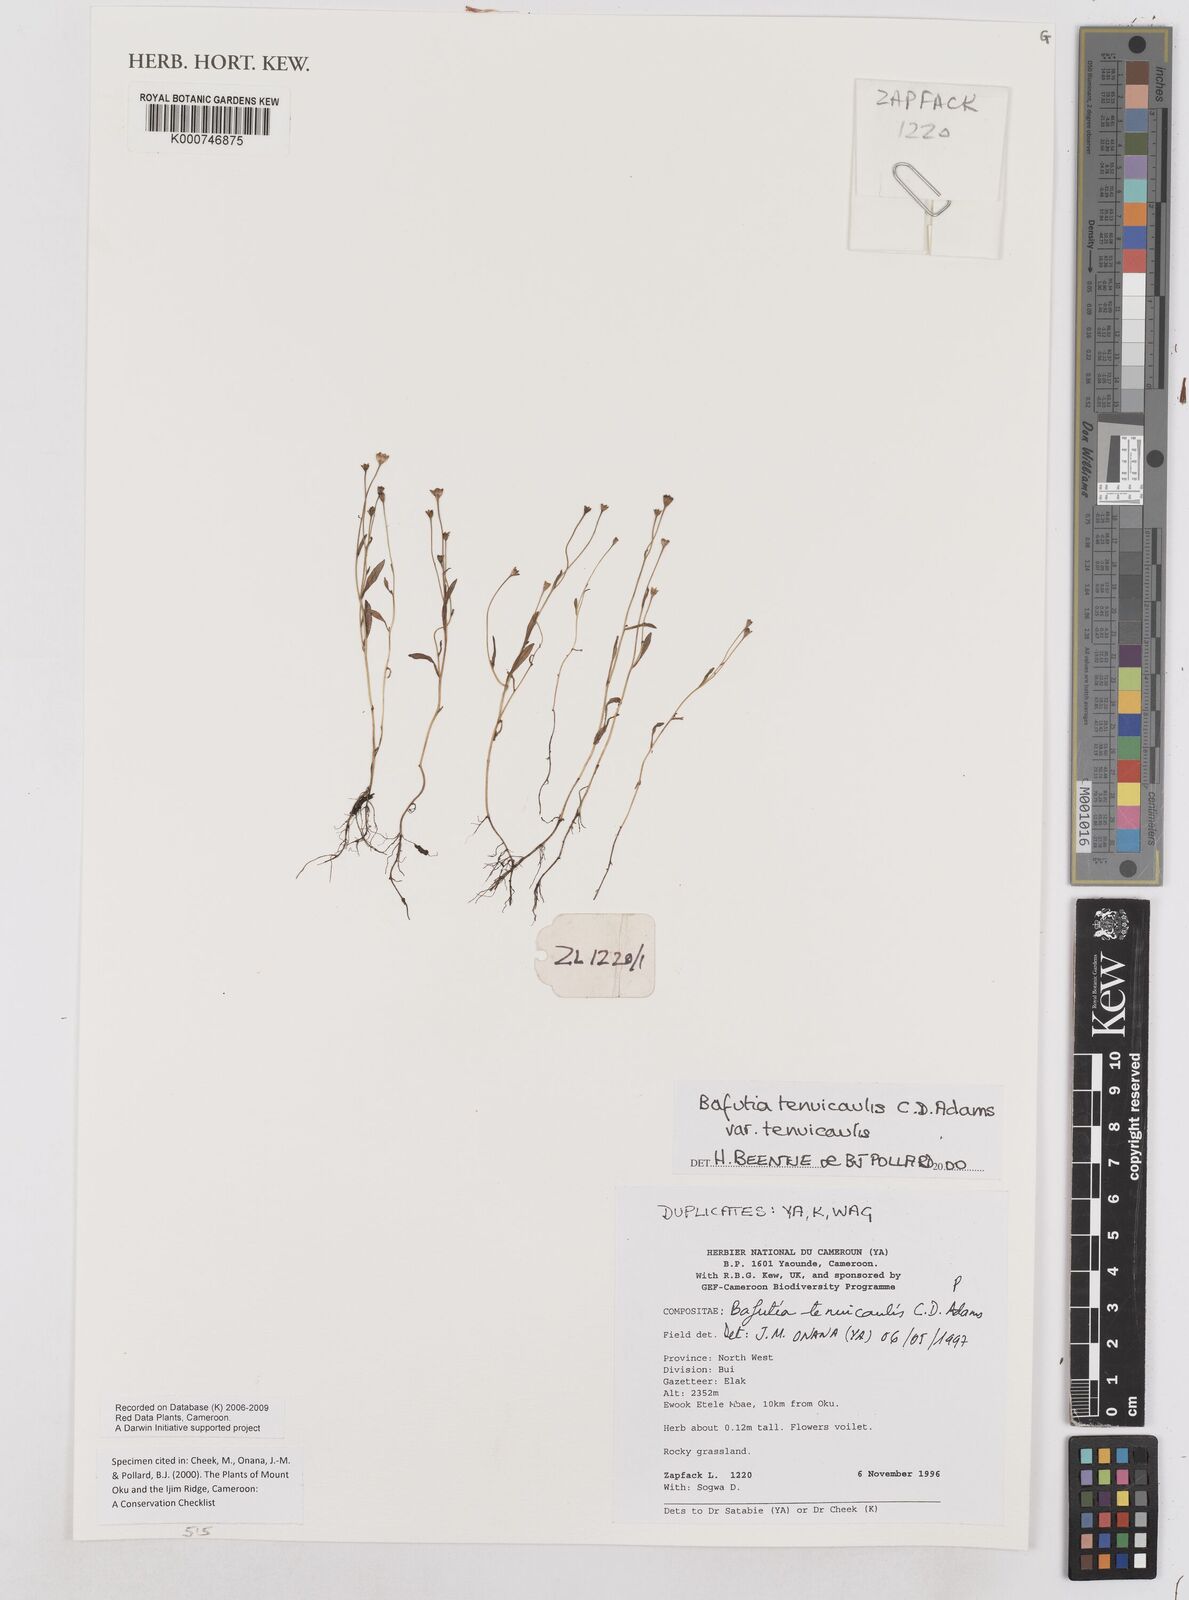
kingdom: Plantae
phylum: Tracheophyta
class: Magnoliopsida
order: Asterales
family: Asteraceae
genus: Emilia
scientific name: Emilia tenuicaulis
